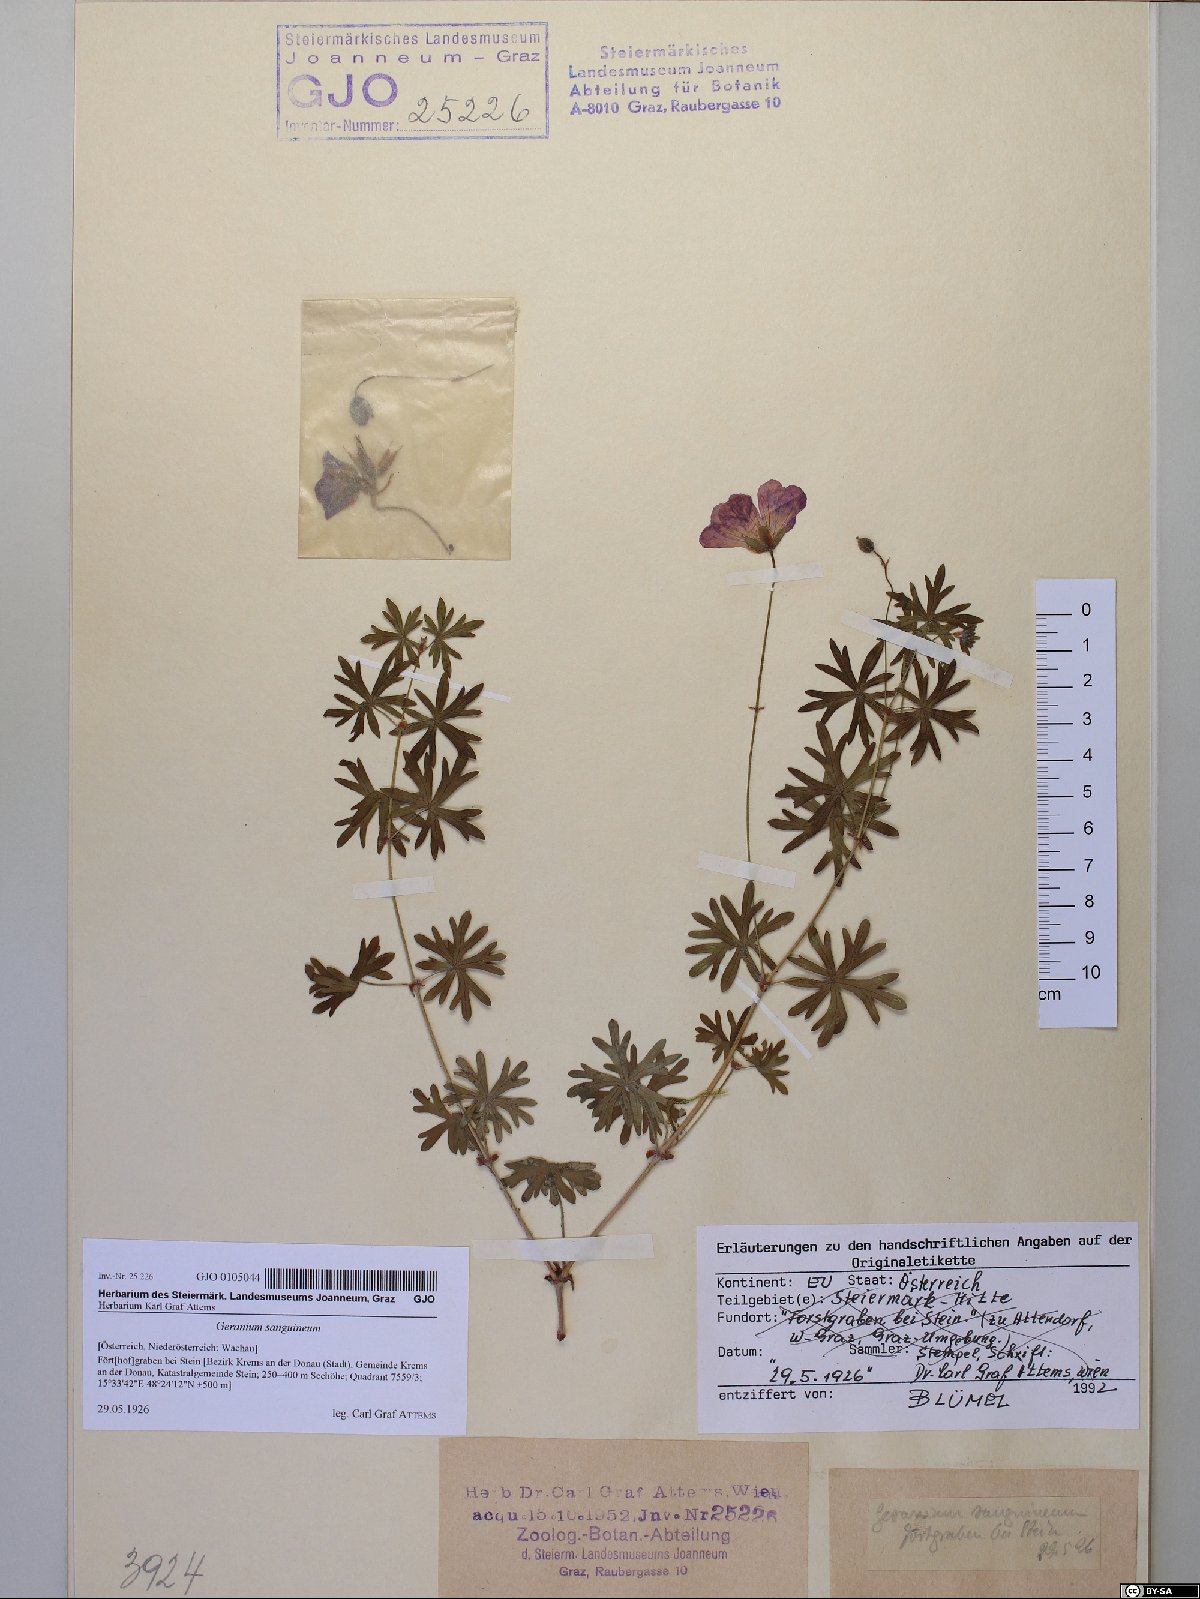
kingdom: Plantae
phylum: Tracheophyta
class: Magnoliopsida
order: Geraniales
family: Geraniaceae
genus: Geranium
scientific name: Geranium sanguineum
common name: Bloody crane's-bill
